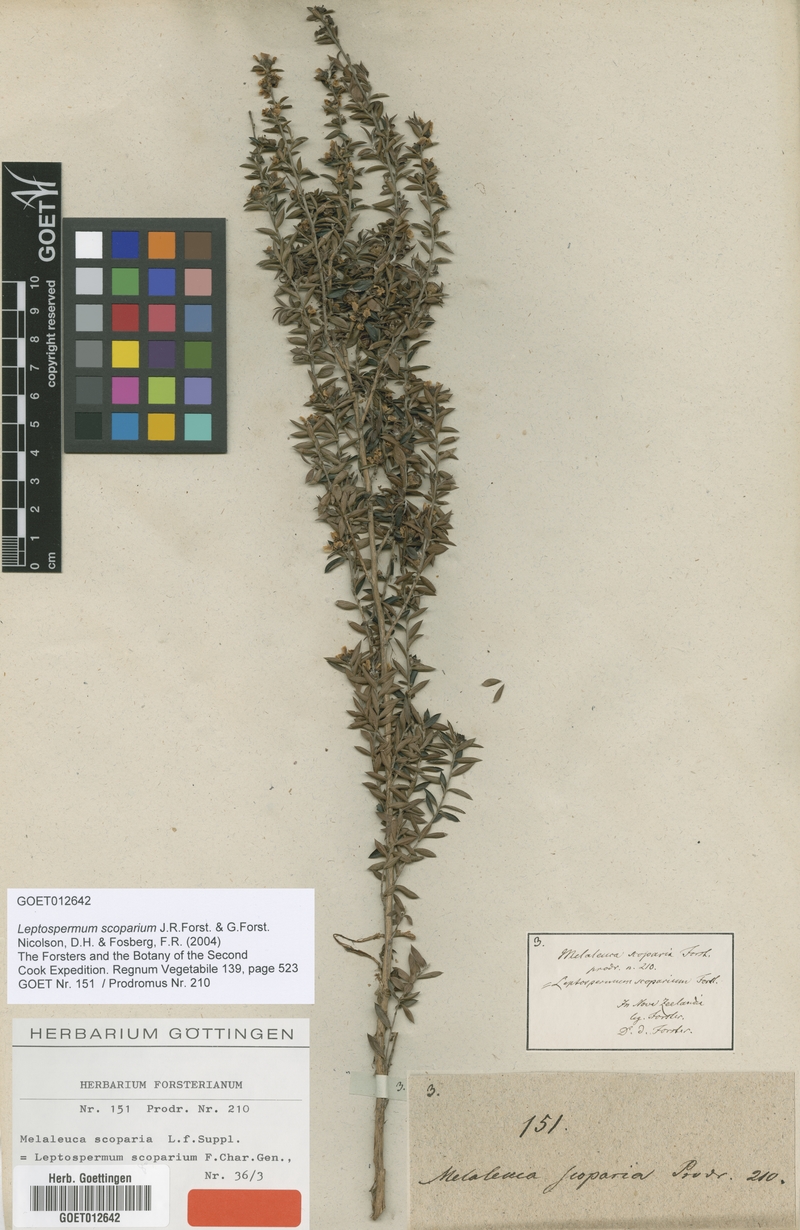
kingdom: Plantae
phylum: Tracheophyta
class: Magnoliopsida
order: Myrtales
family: Myrtaceae
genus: Leptospermum
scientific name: Leptospermum scoparium
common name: Broom tea-tree
